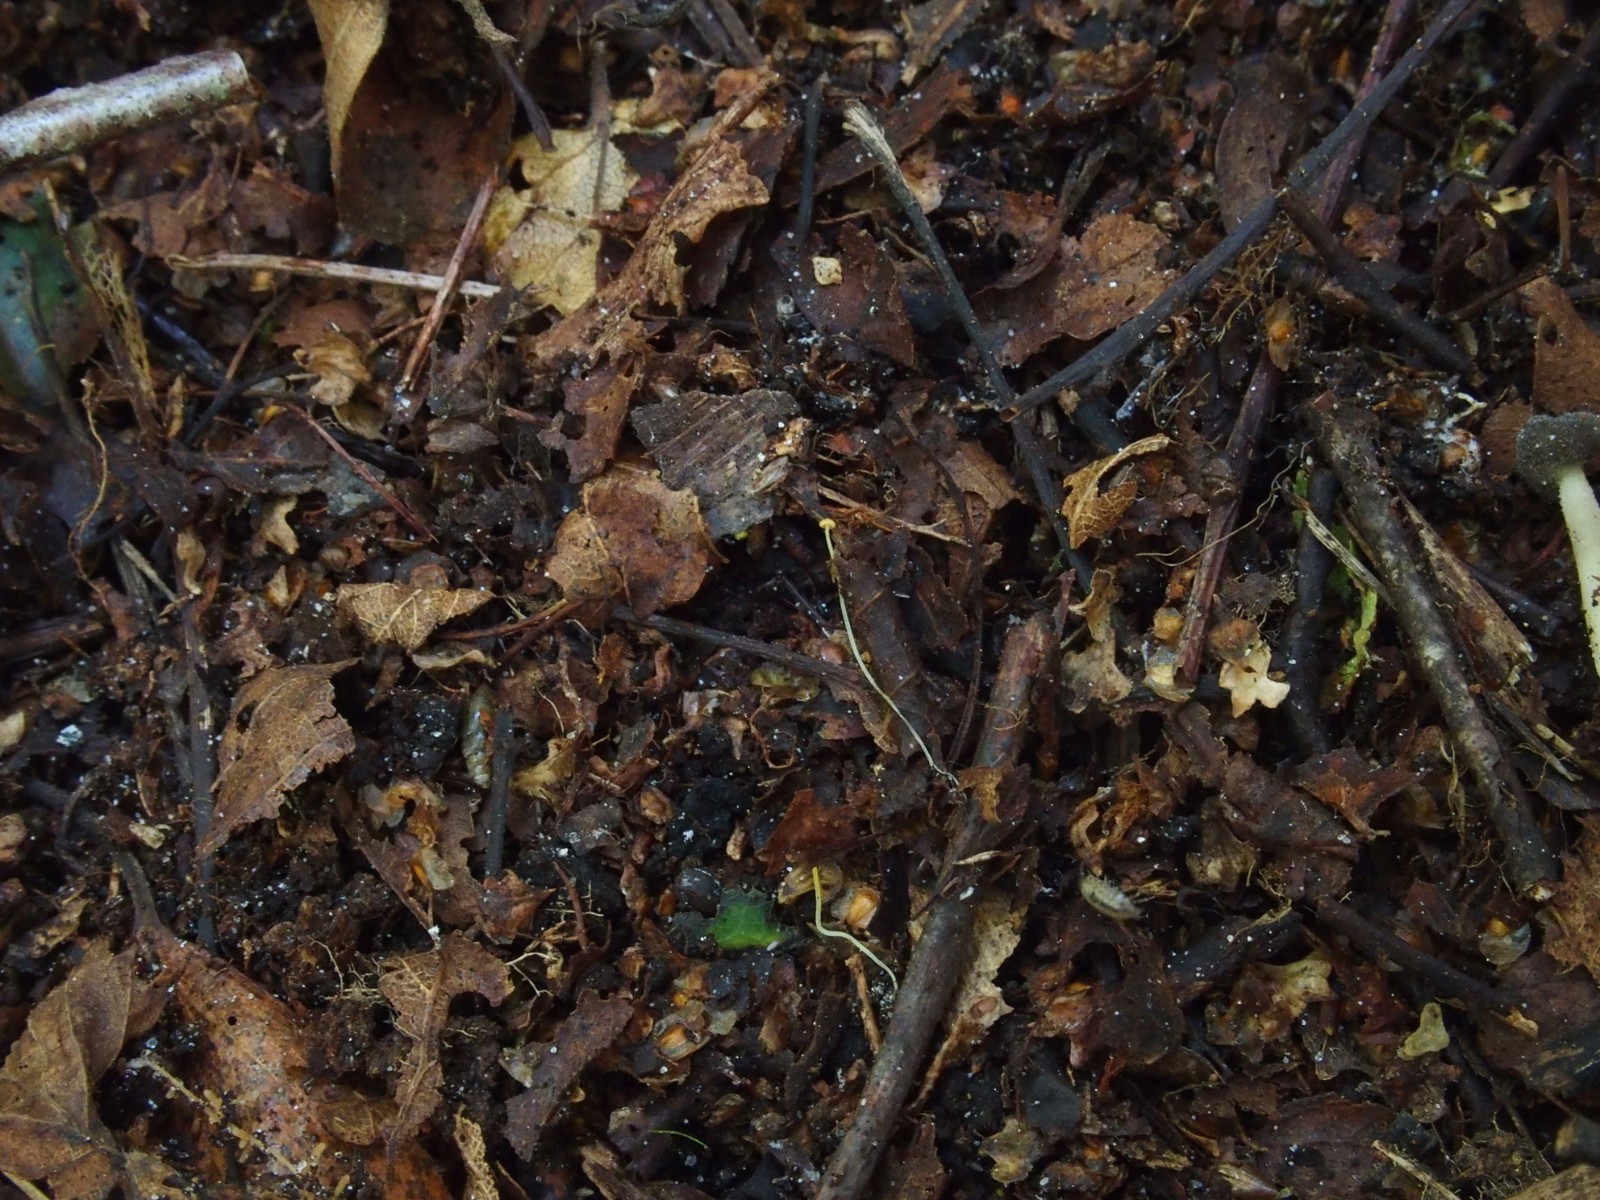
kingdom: Fungi
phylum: Basidiomycota
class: Agaricomycetes
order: Agaricales
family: Mycenaceae
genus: Mycena
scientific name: Mycena acicula
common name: orange huesvamp
